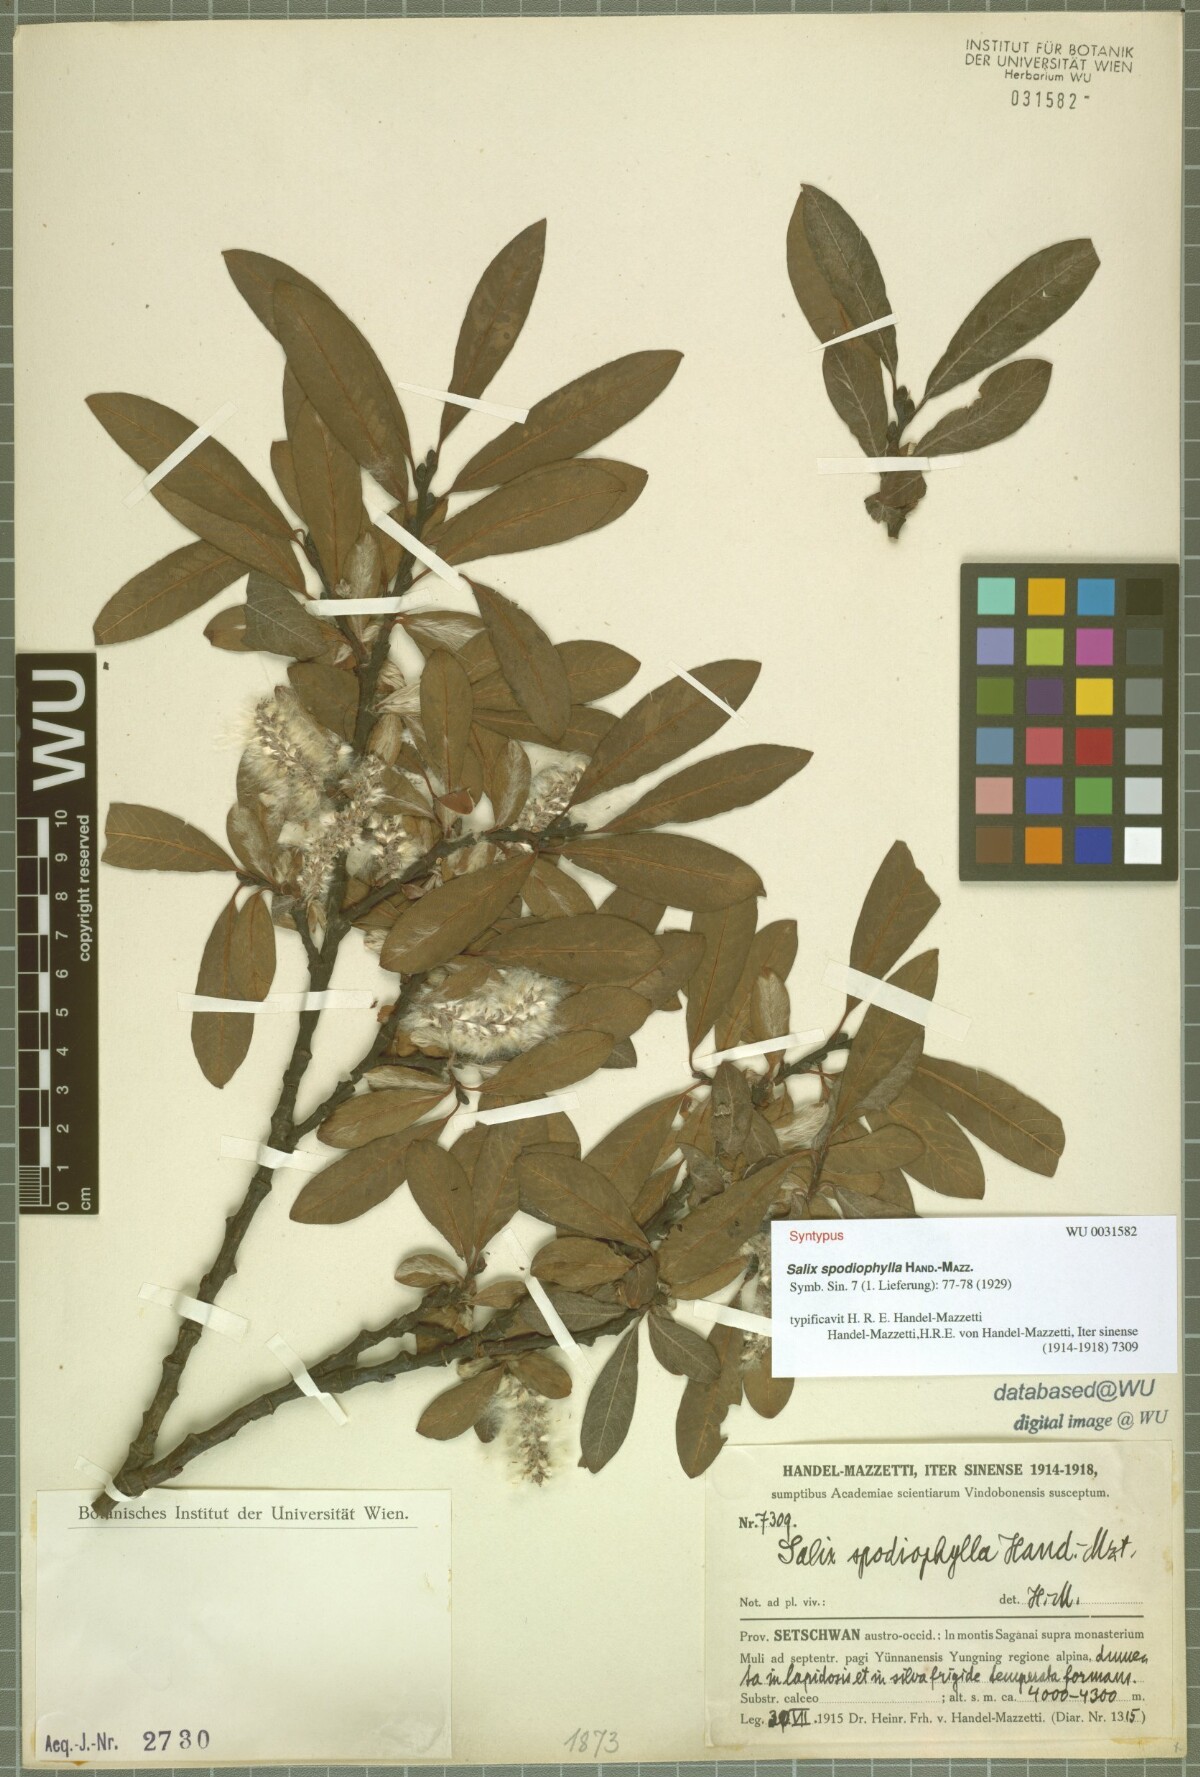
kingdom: Plantae
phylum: Tracheophyta
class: Magnoliopsida
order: Malpighiales
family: Salicaceae
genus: Salix
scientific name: Salix spodiophylla
